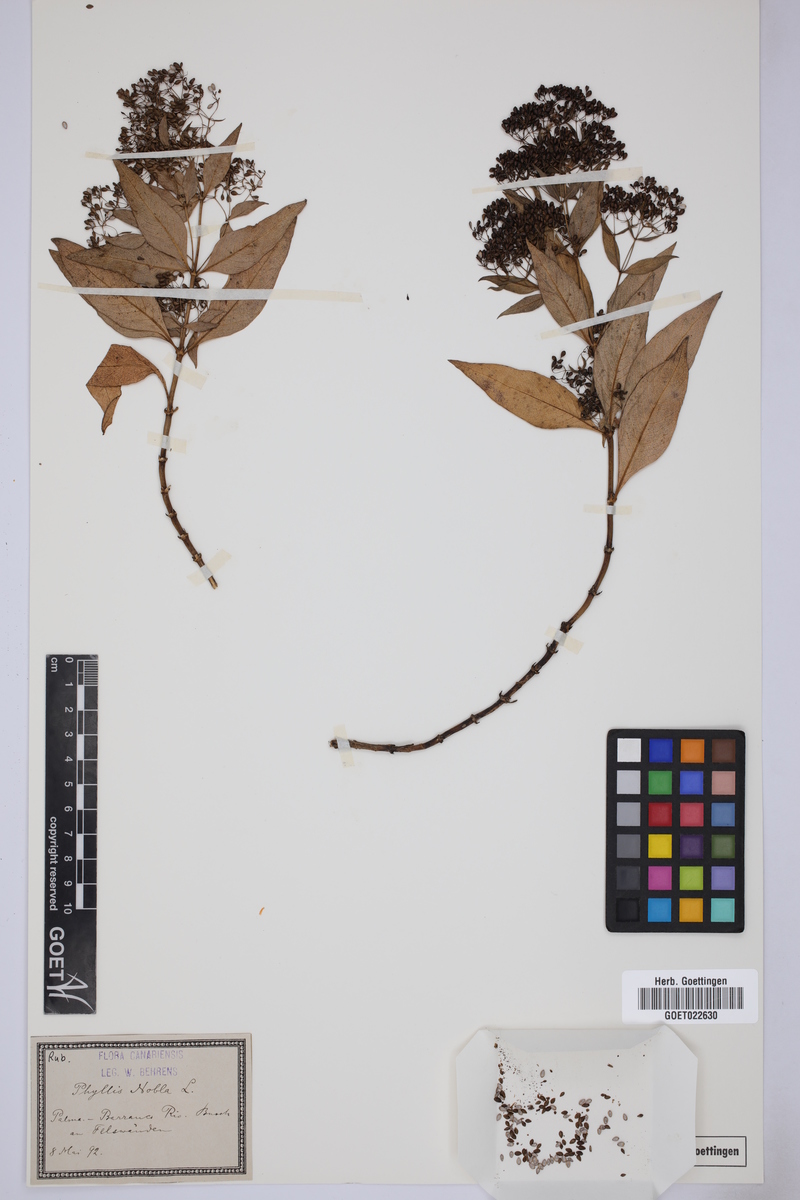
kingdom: Plantae
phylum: Tracheophyta
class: Magnoliopsida
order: Gentianales
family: Rubiaceae
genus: Phyllis
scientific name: Phyllis nobla
